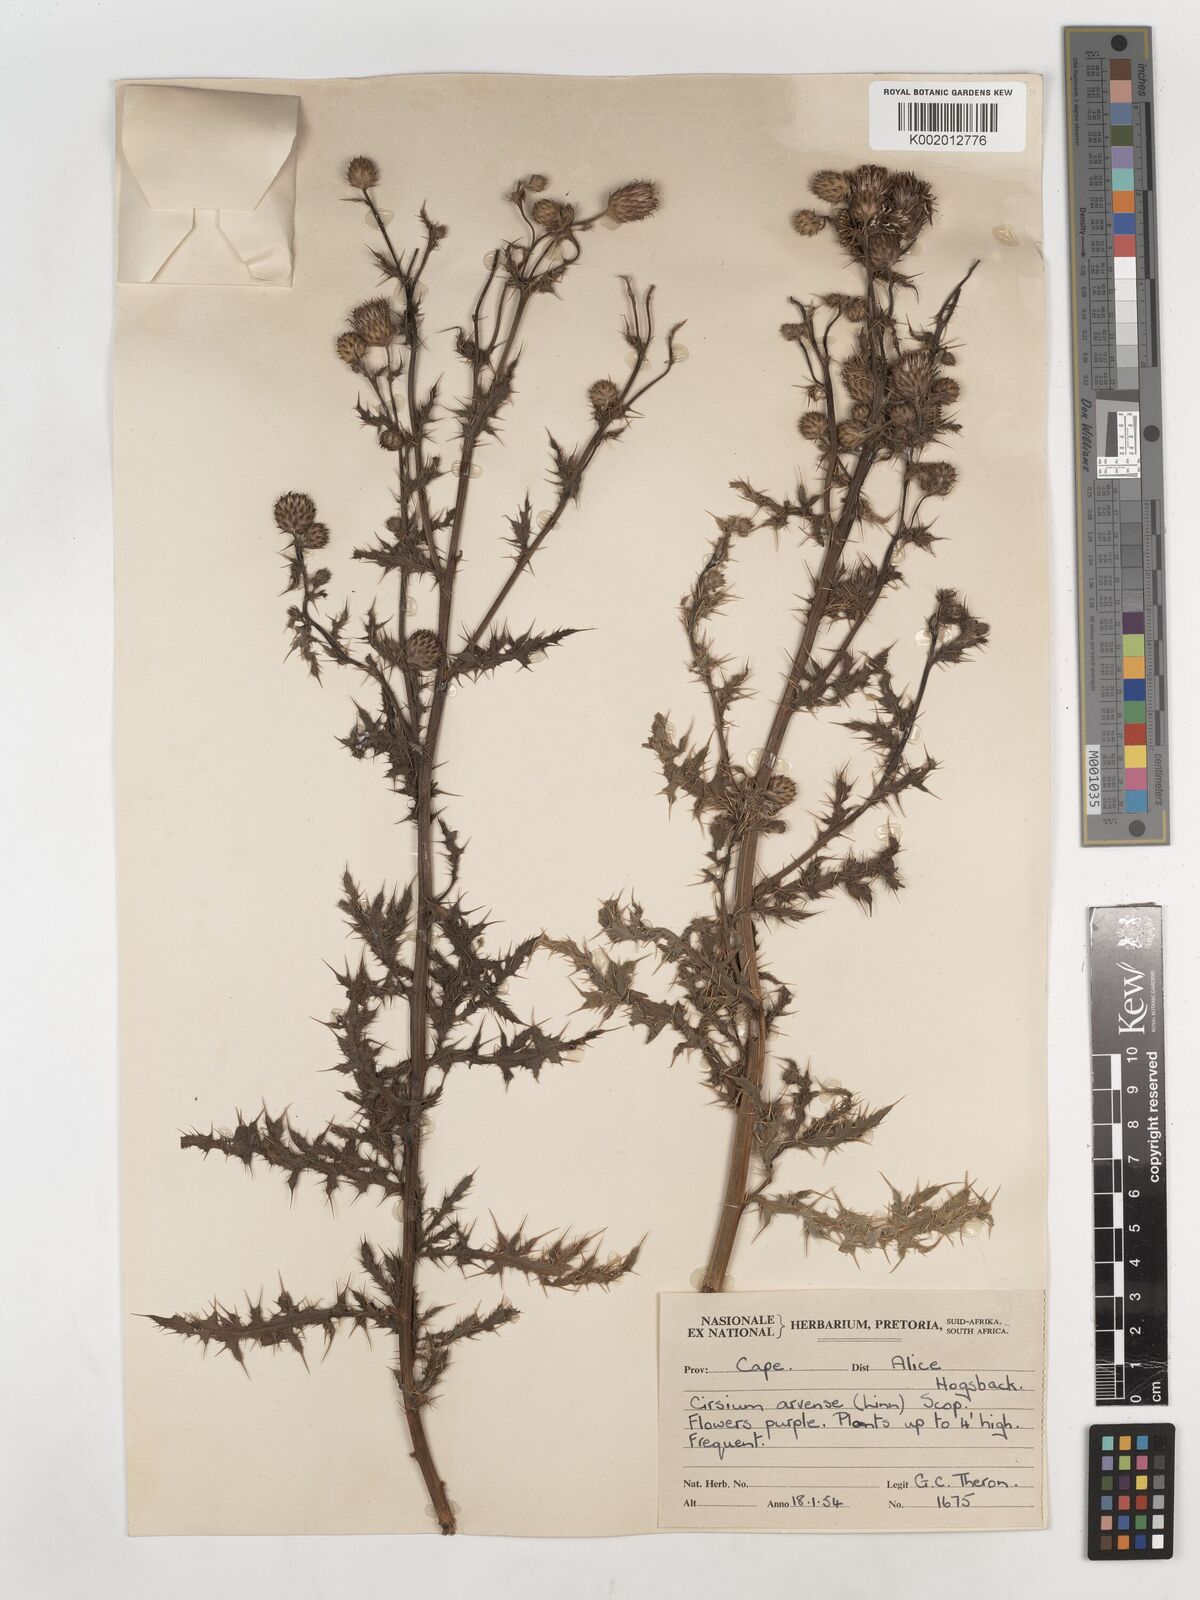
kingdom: Plantae
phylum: Tracheophyta
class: Magnoliopsida
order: Asterales
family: Asteraceae
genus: Cirsium
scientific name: Cirsium arvense
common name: Creeping thistle
